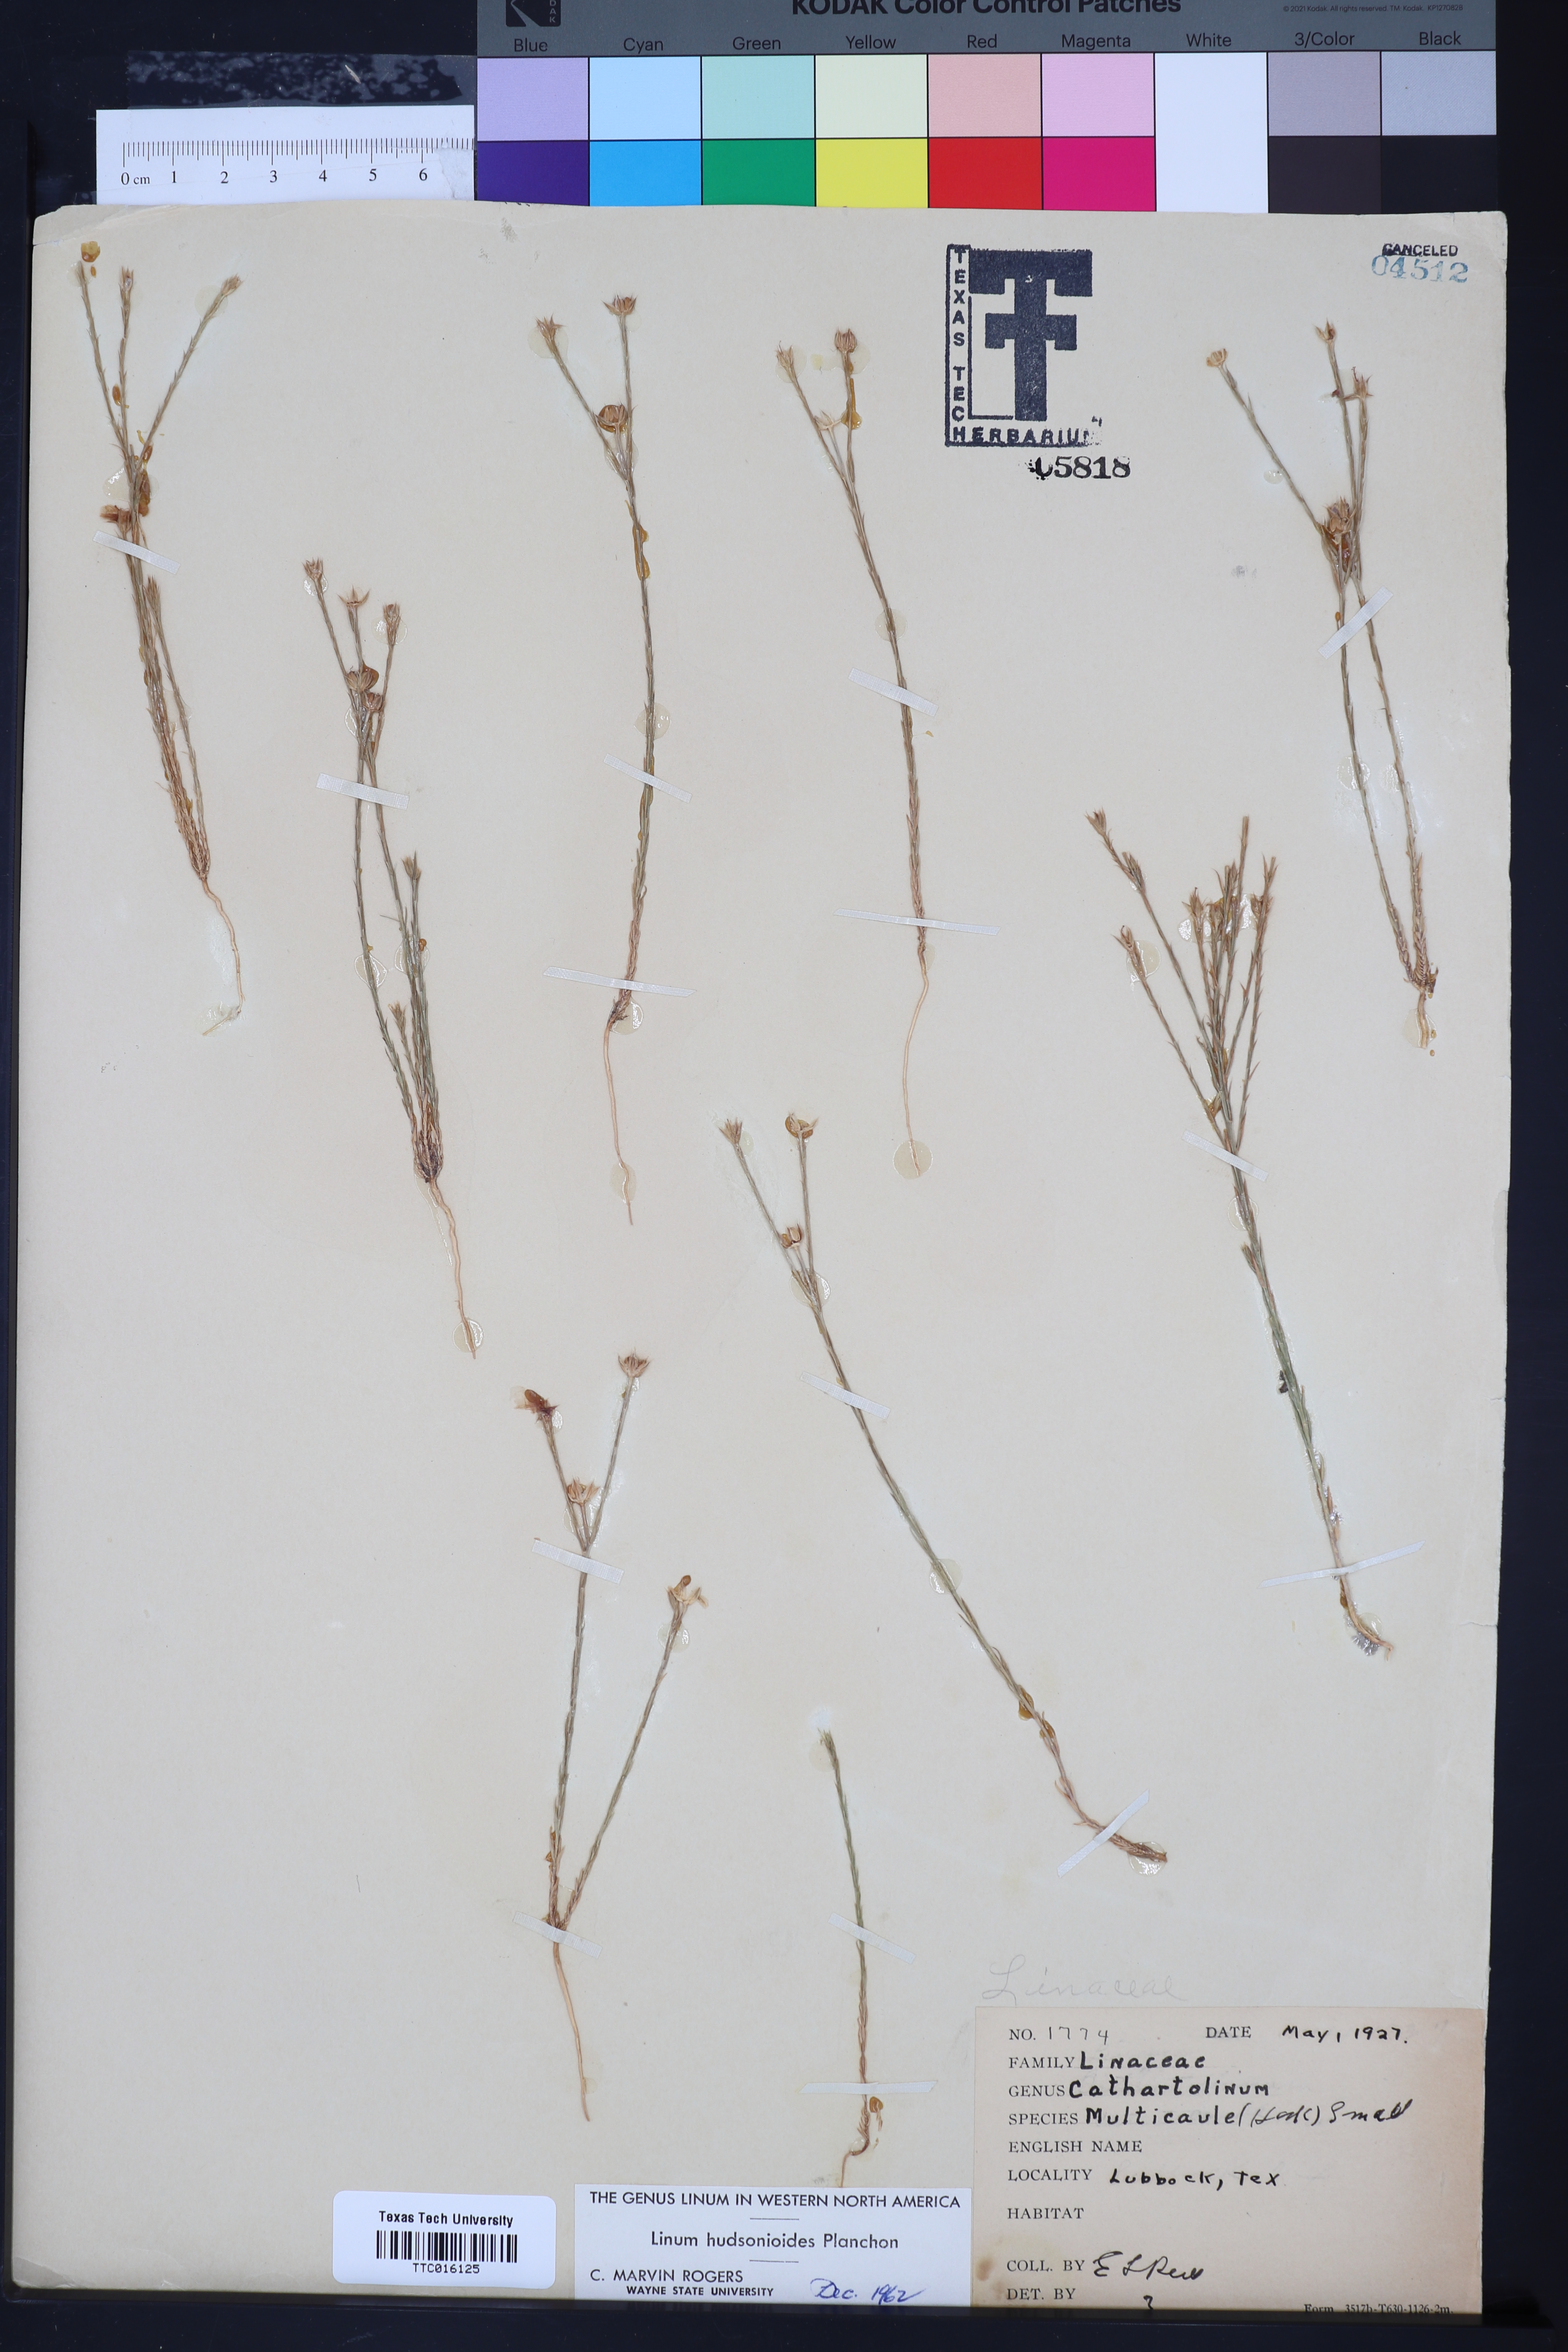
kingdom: Plantae
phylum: Tracheophyta
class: Magnoliopsida
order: Malpighiales
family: Linaceae
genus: Linum
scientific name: Linum hudsonioides
